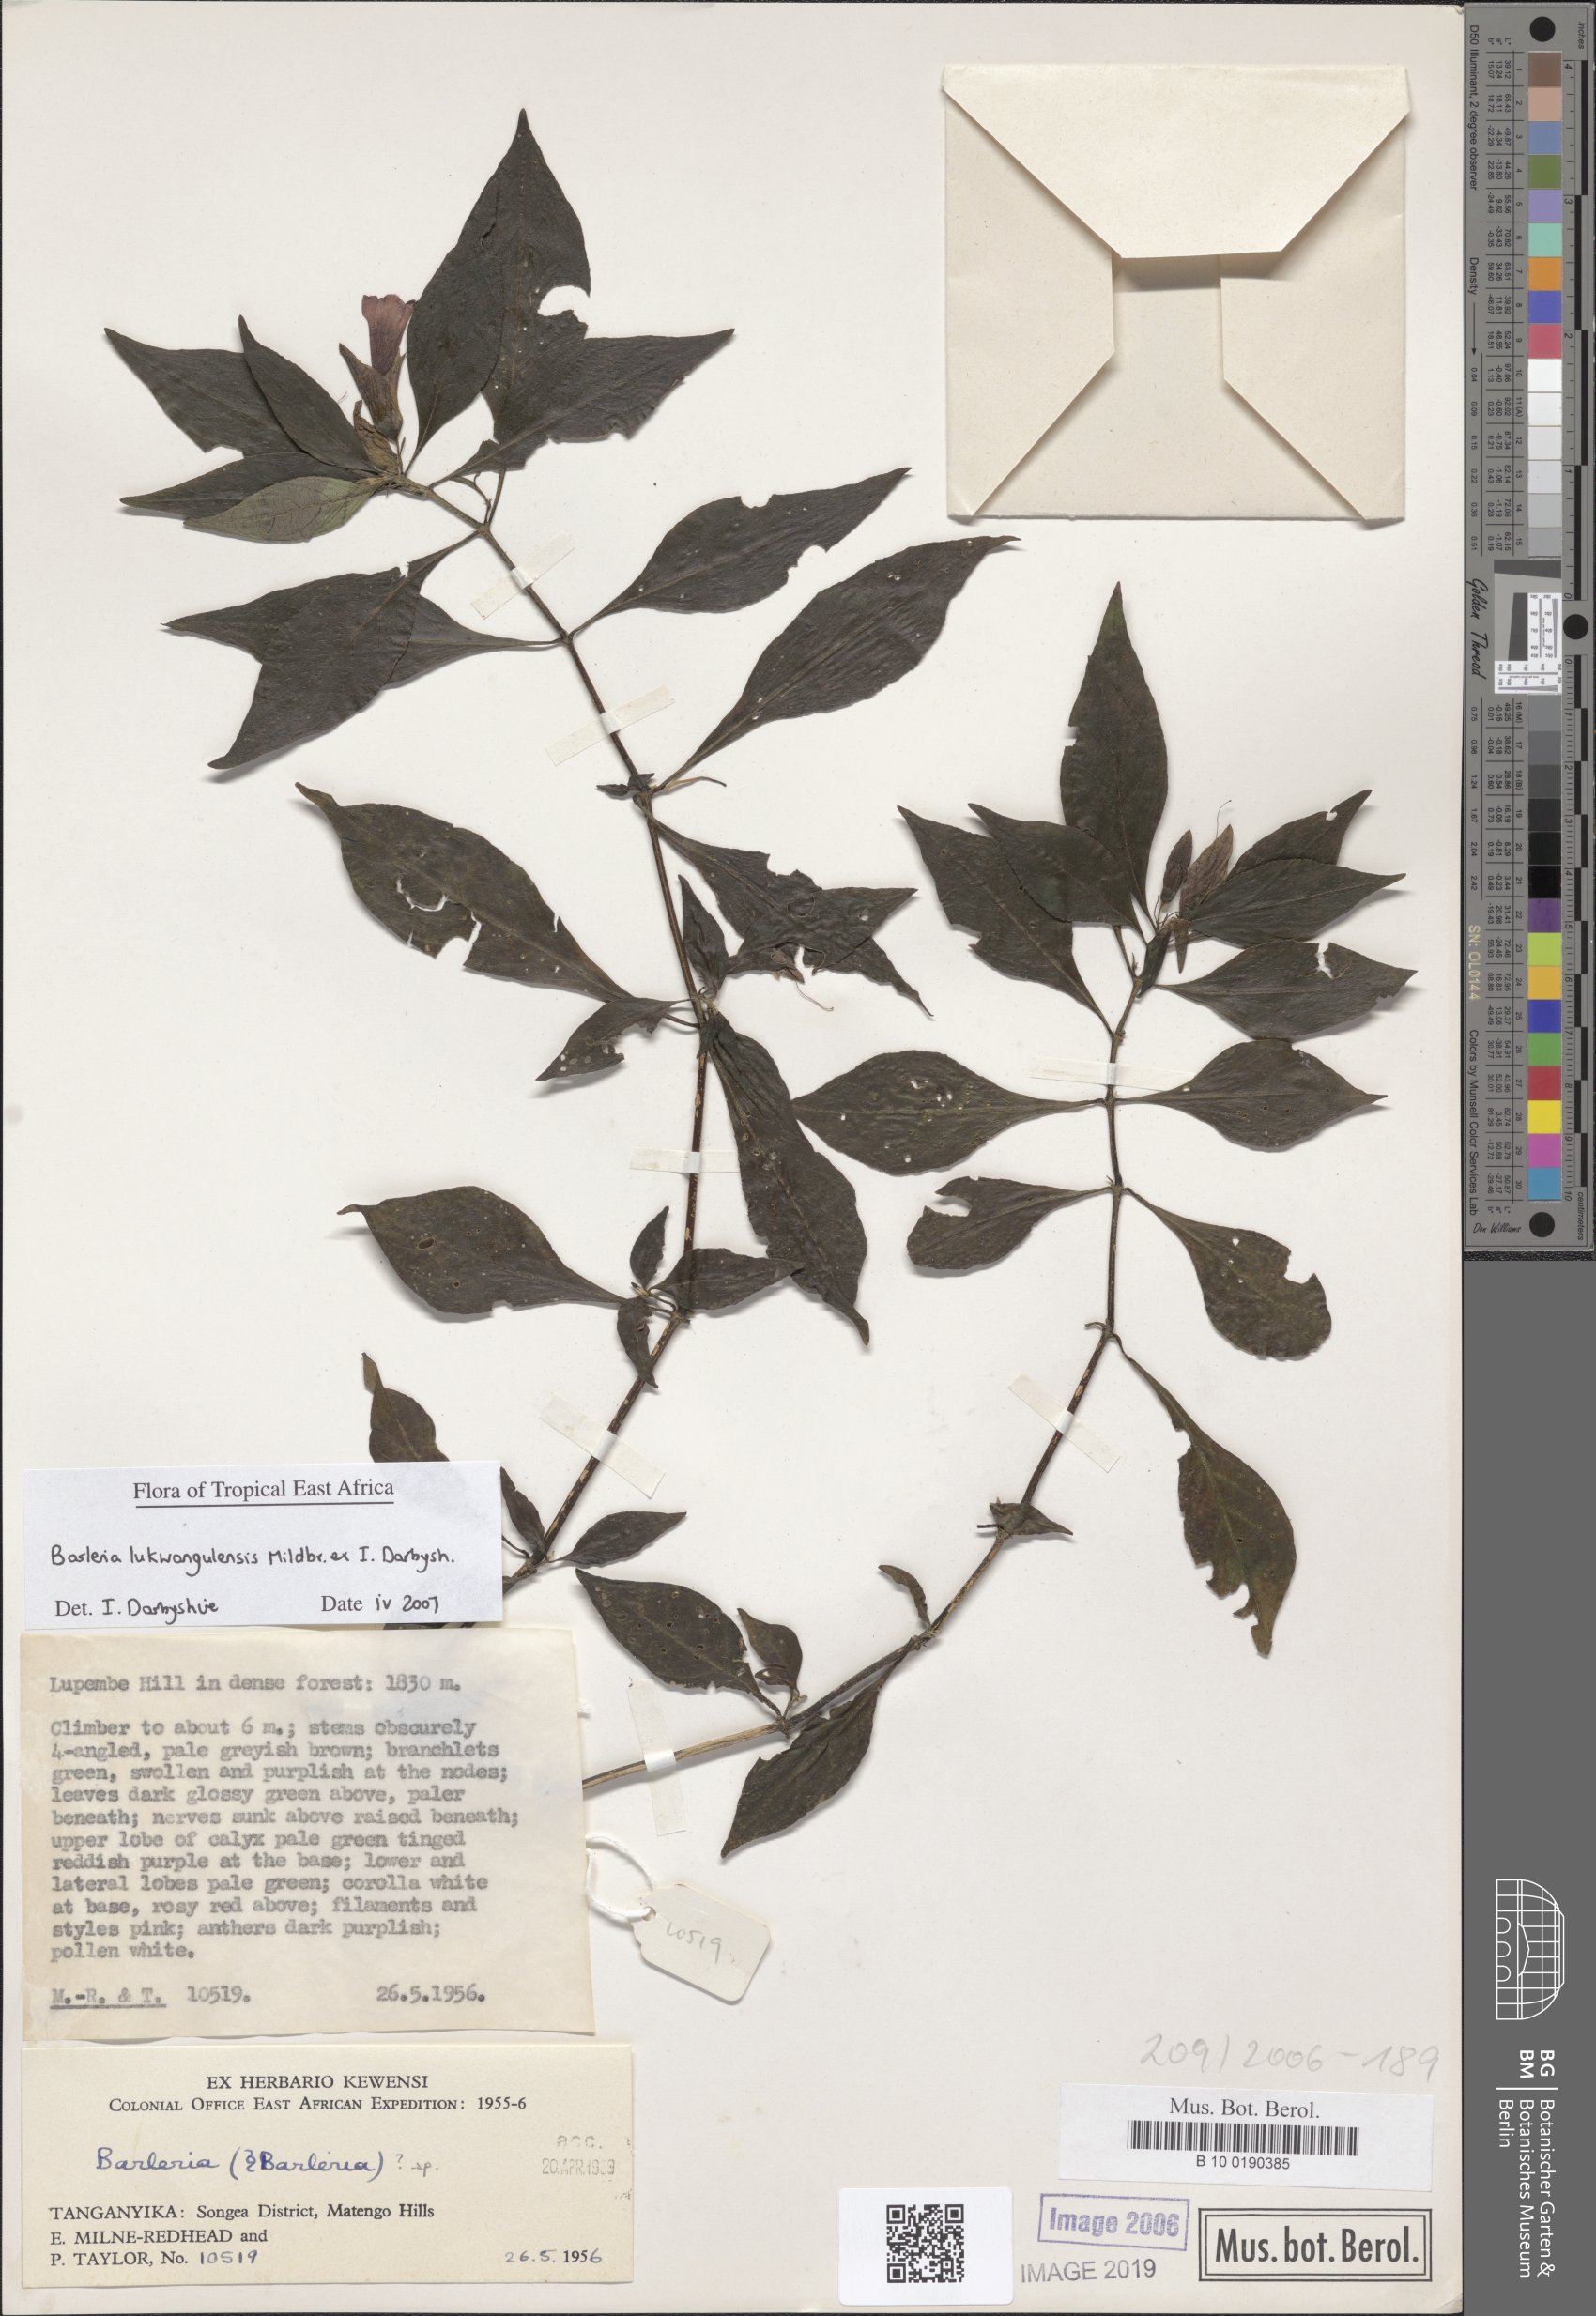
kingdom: Plantae
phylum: Tracheophyta
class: Magnoliopsida
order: Lamiales
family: Acanthaceae
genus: Barleria
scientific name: Barleria lukwangulensis
